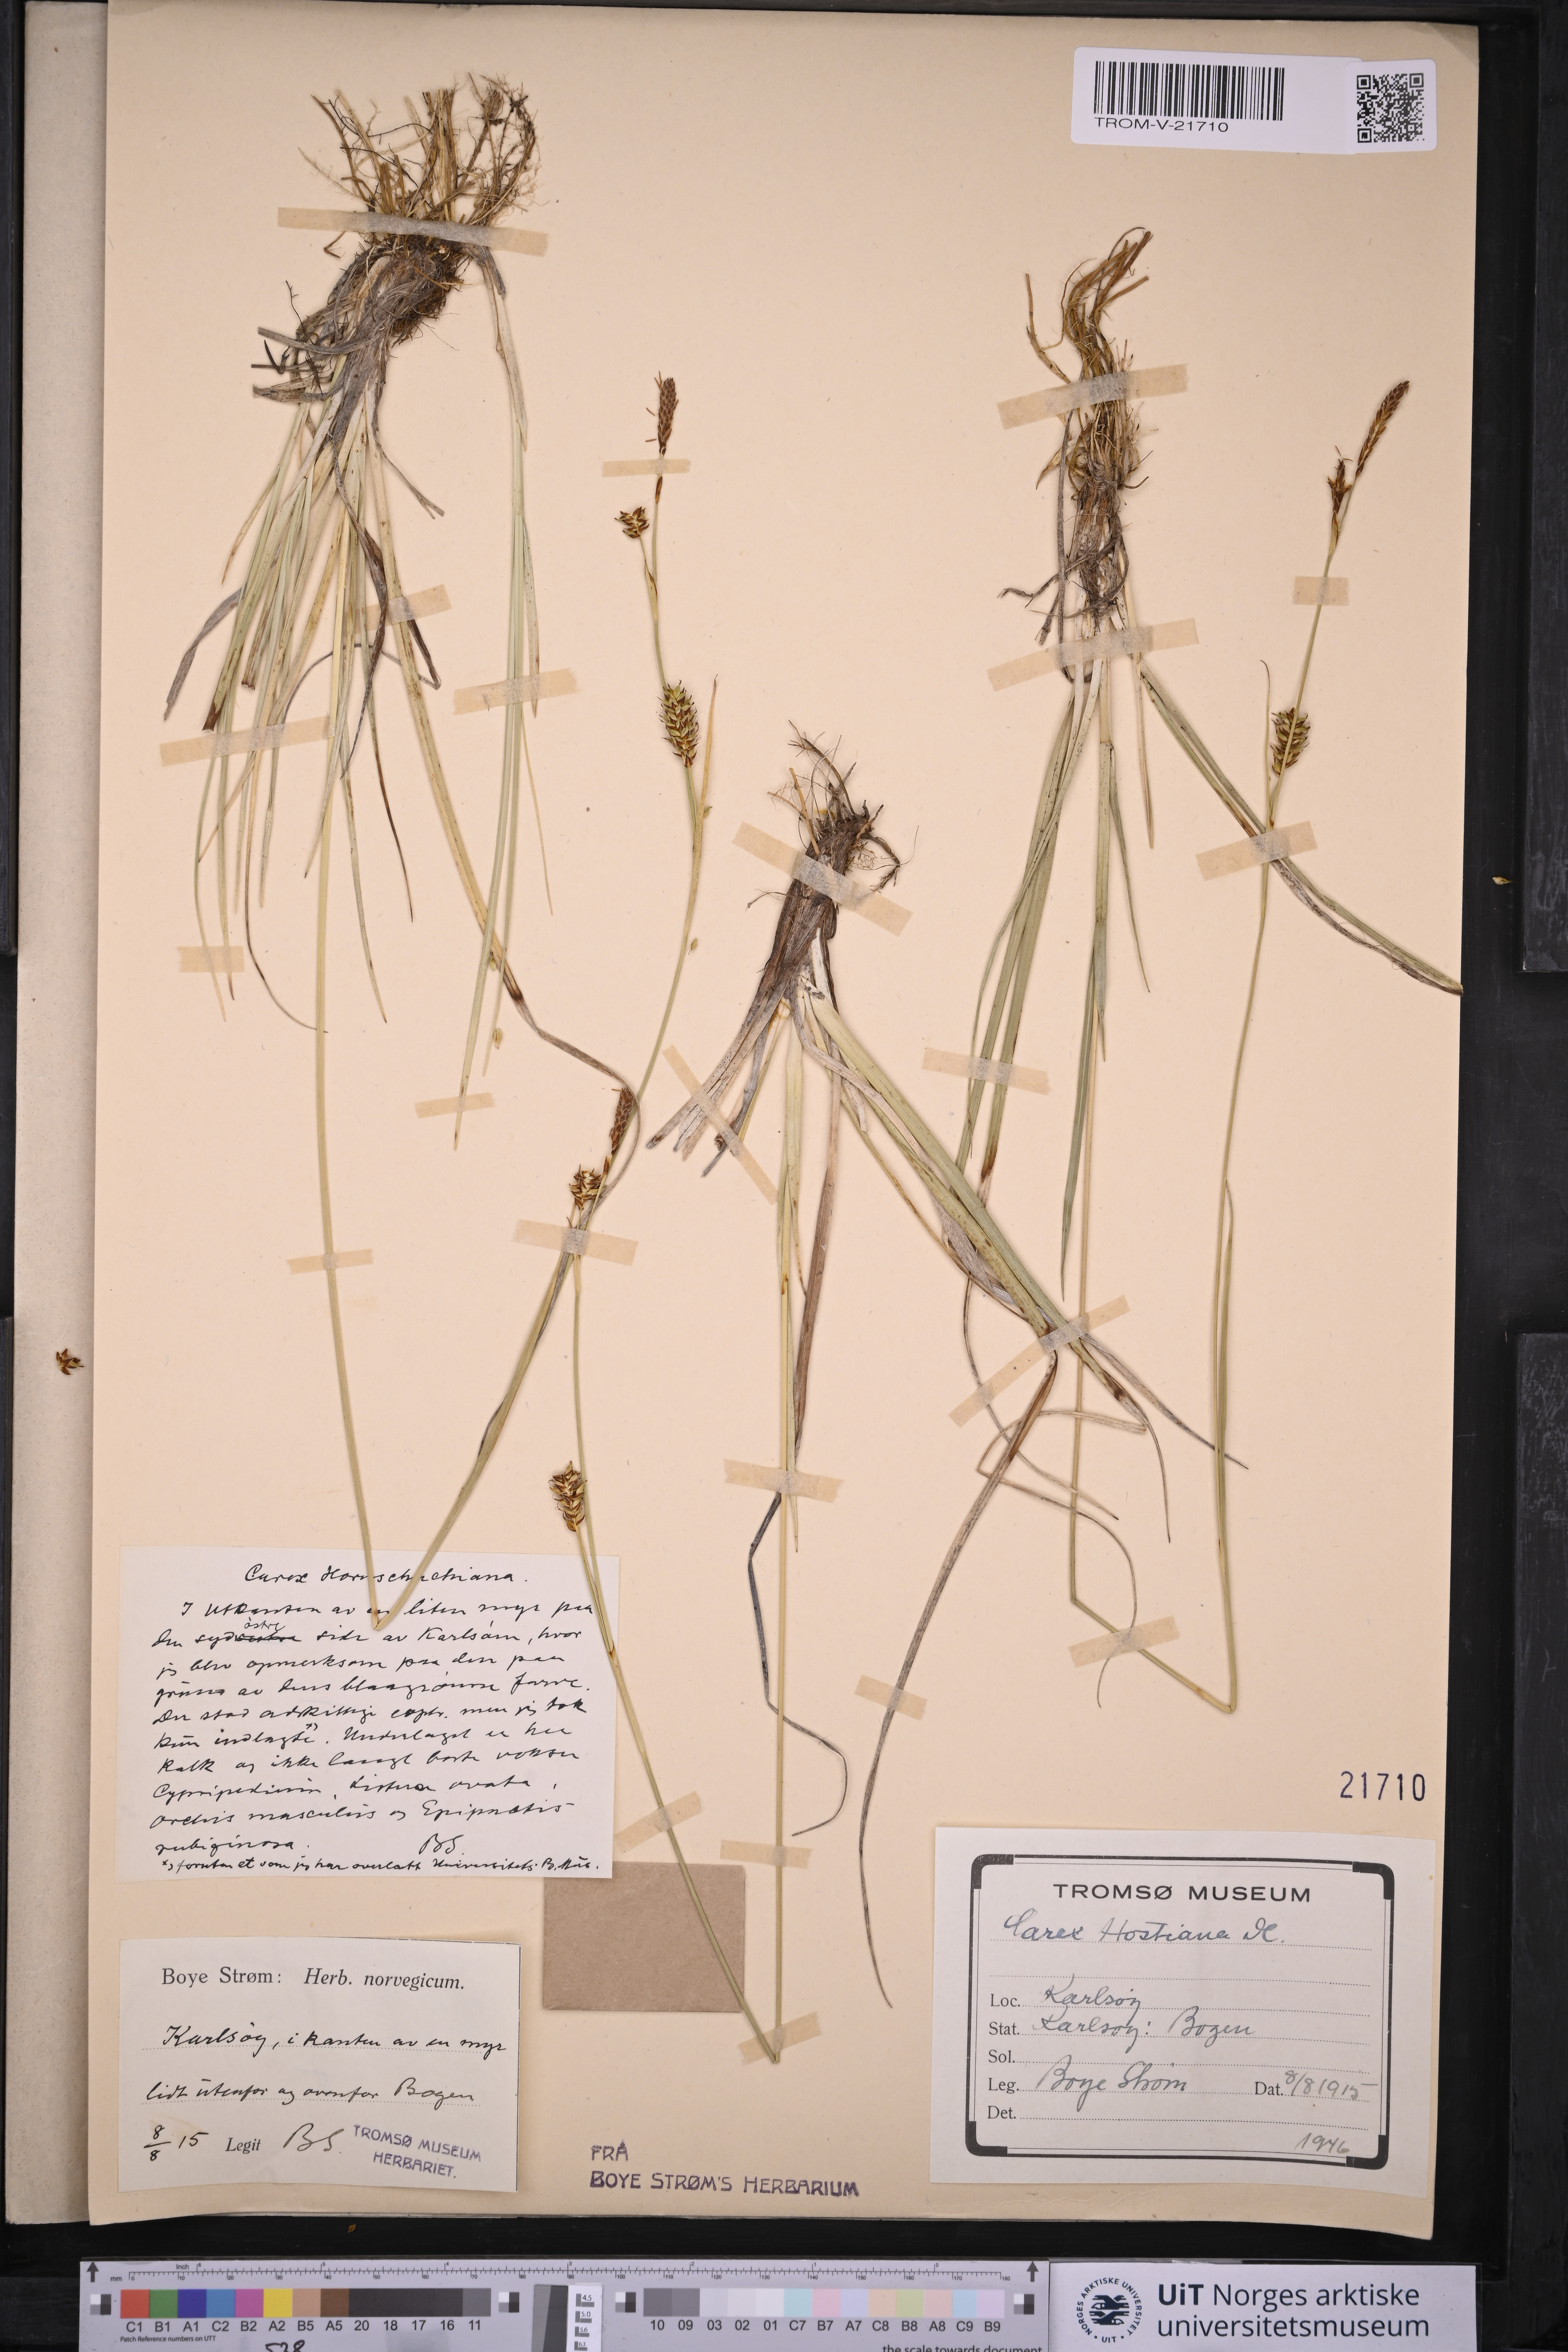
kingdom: Plantae
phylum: Tracheophyta
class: Liliopsida
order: Poales
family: Cyperaceae
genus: Carex
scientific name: Carex hostiana
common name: Tawny sedge
